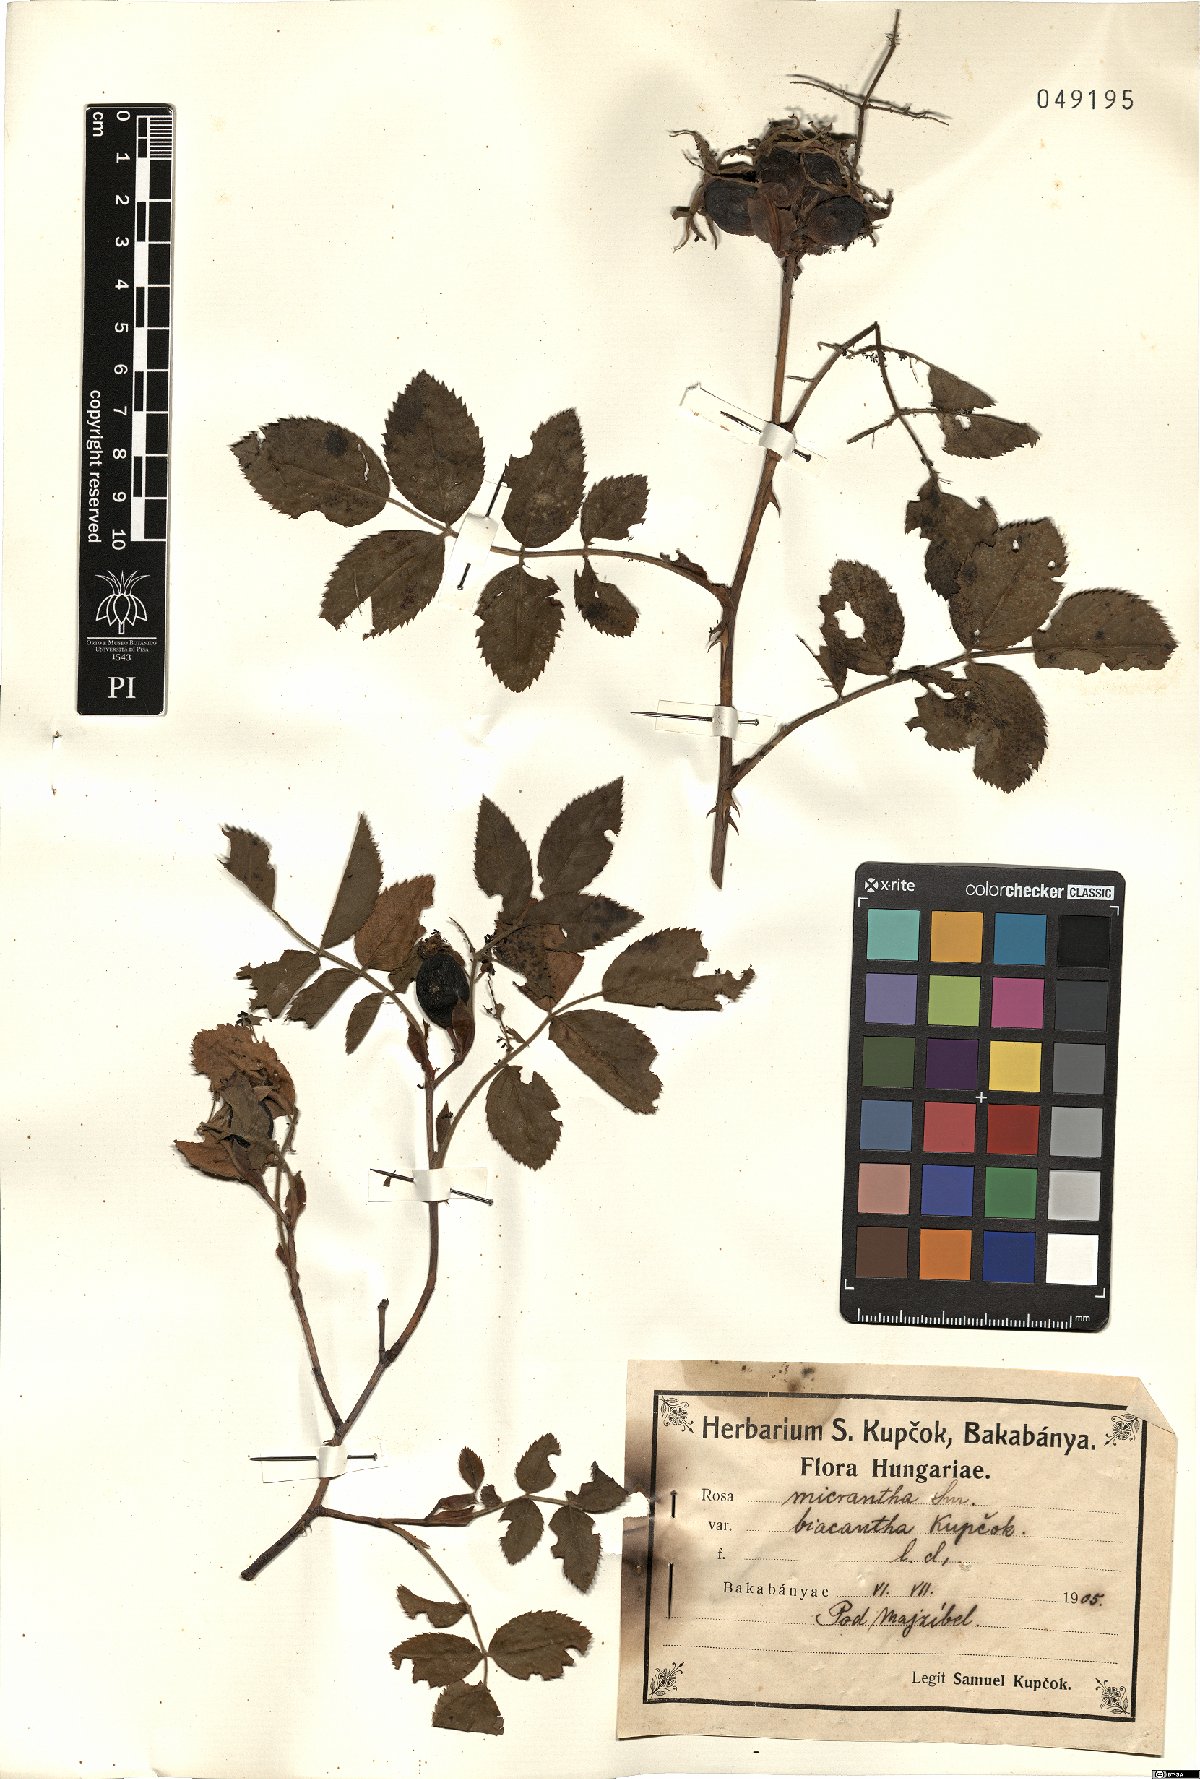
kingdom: Plantae
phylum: Tracheophyta
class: Magnoliopsida
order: Rosales
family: Rosaceae
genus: Rosa
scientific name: Rosa micrantha
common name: Small-flowered sweet-briar
